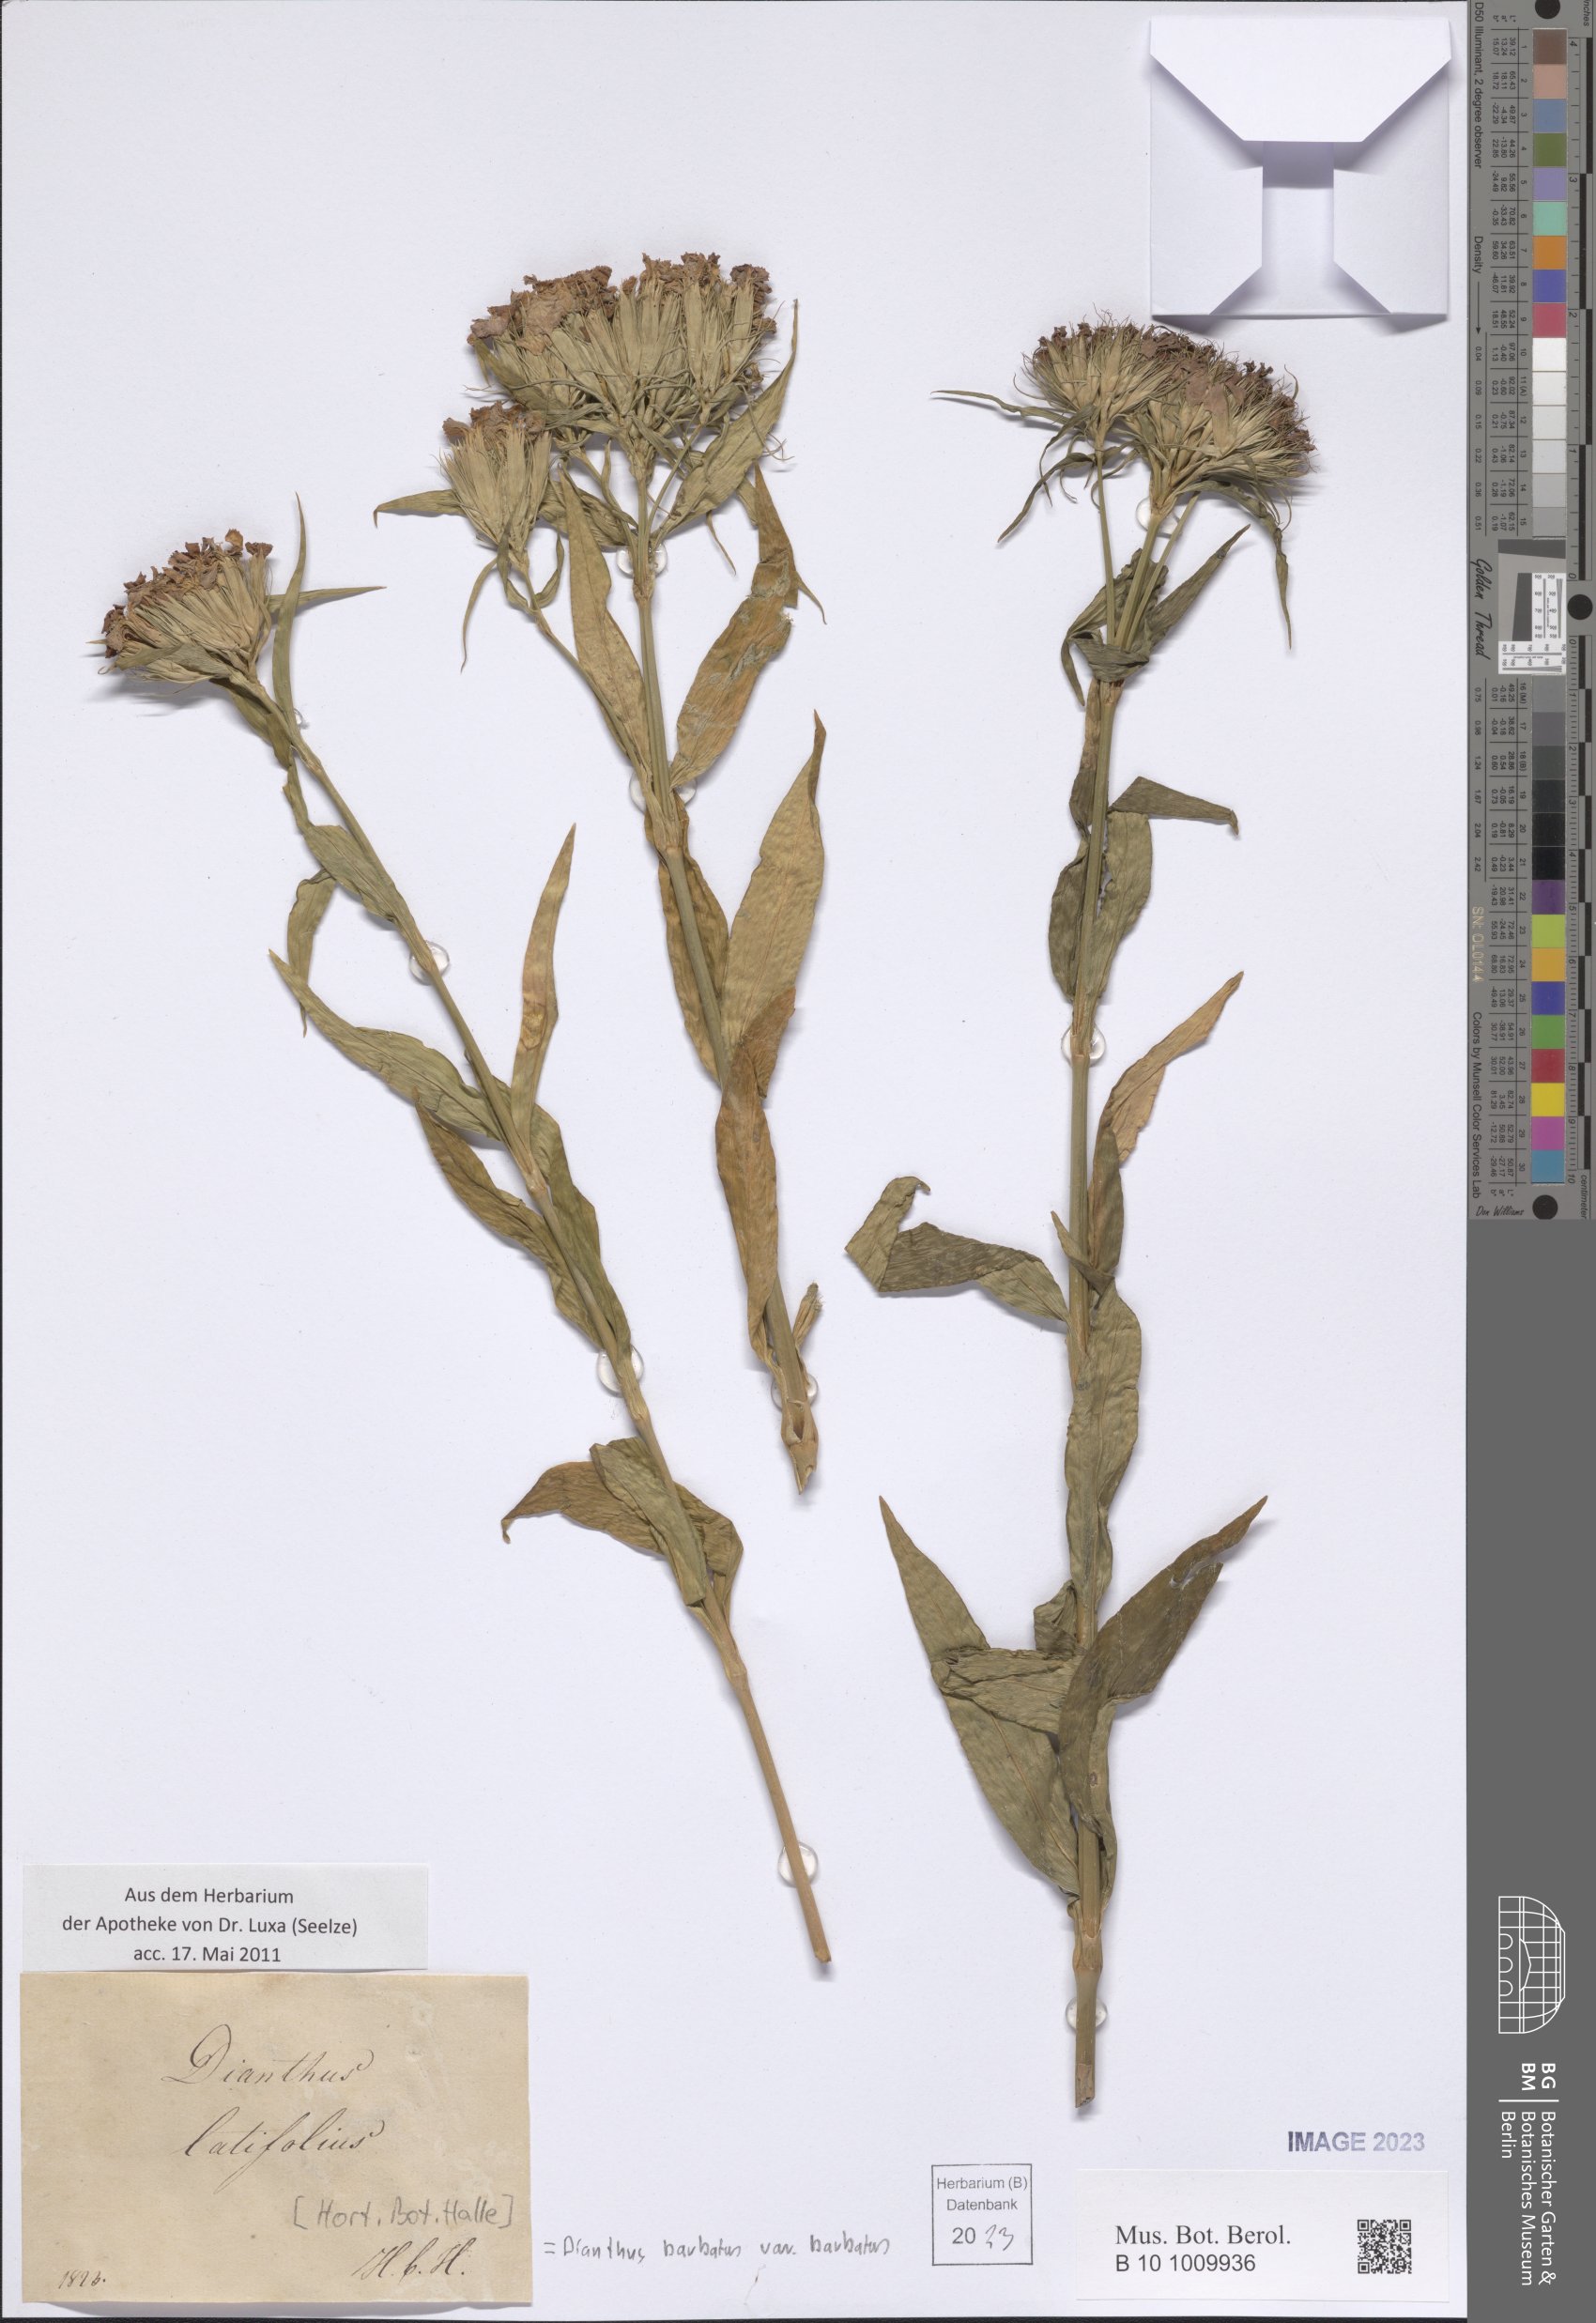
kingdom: Plantae
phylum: Tracheophyta
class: Magnoliopsida
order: Caryophyllales
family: Caryophyllaceae
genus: Dianthus
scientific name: Dianthus barbatus
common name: Sweet-william
